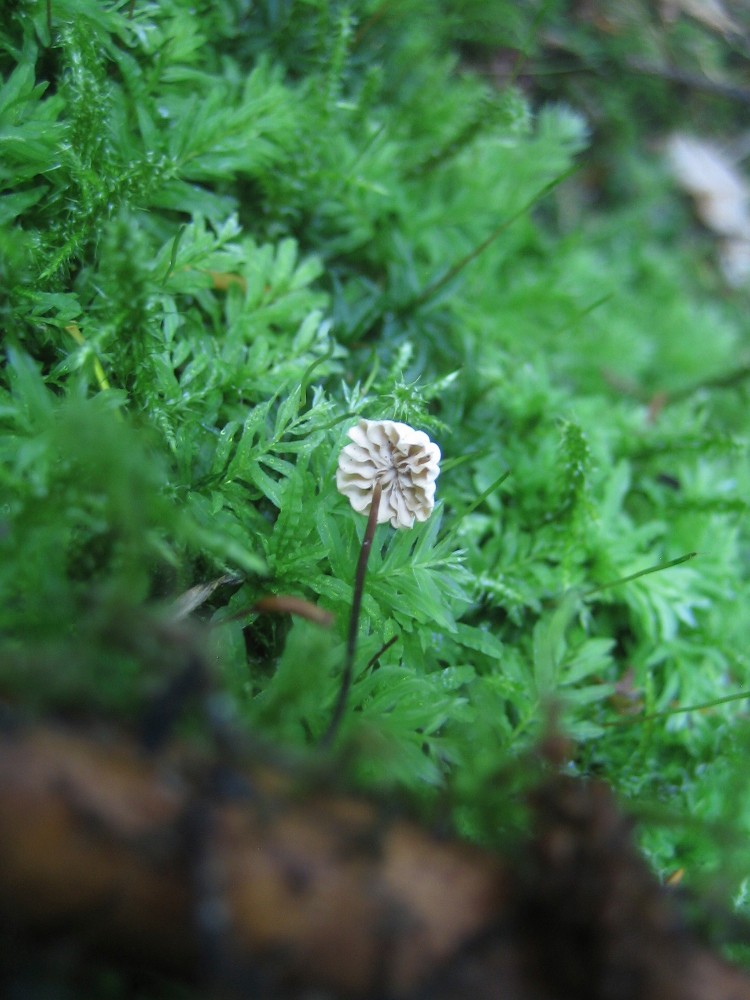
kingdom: Fungi
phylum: Basidiomycota
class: Agaricomycetes
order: Agaricales
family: Marasmiaceae
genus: Marasmius
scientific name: Marasmius rotula
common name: hjul-bruskhat
